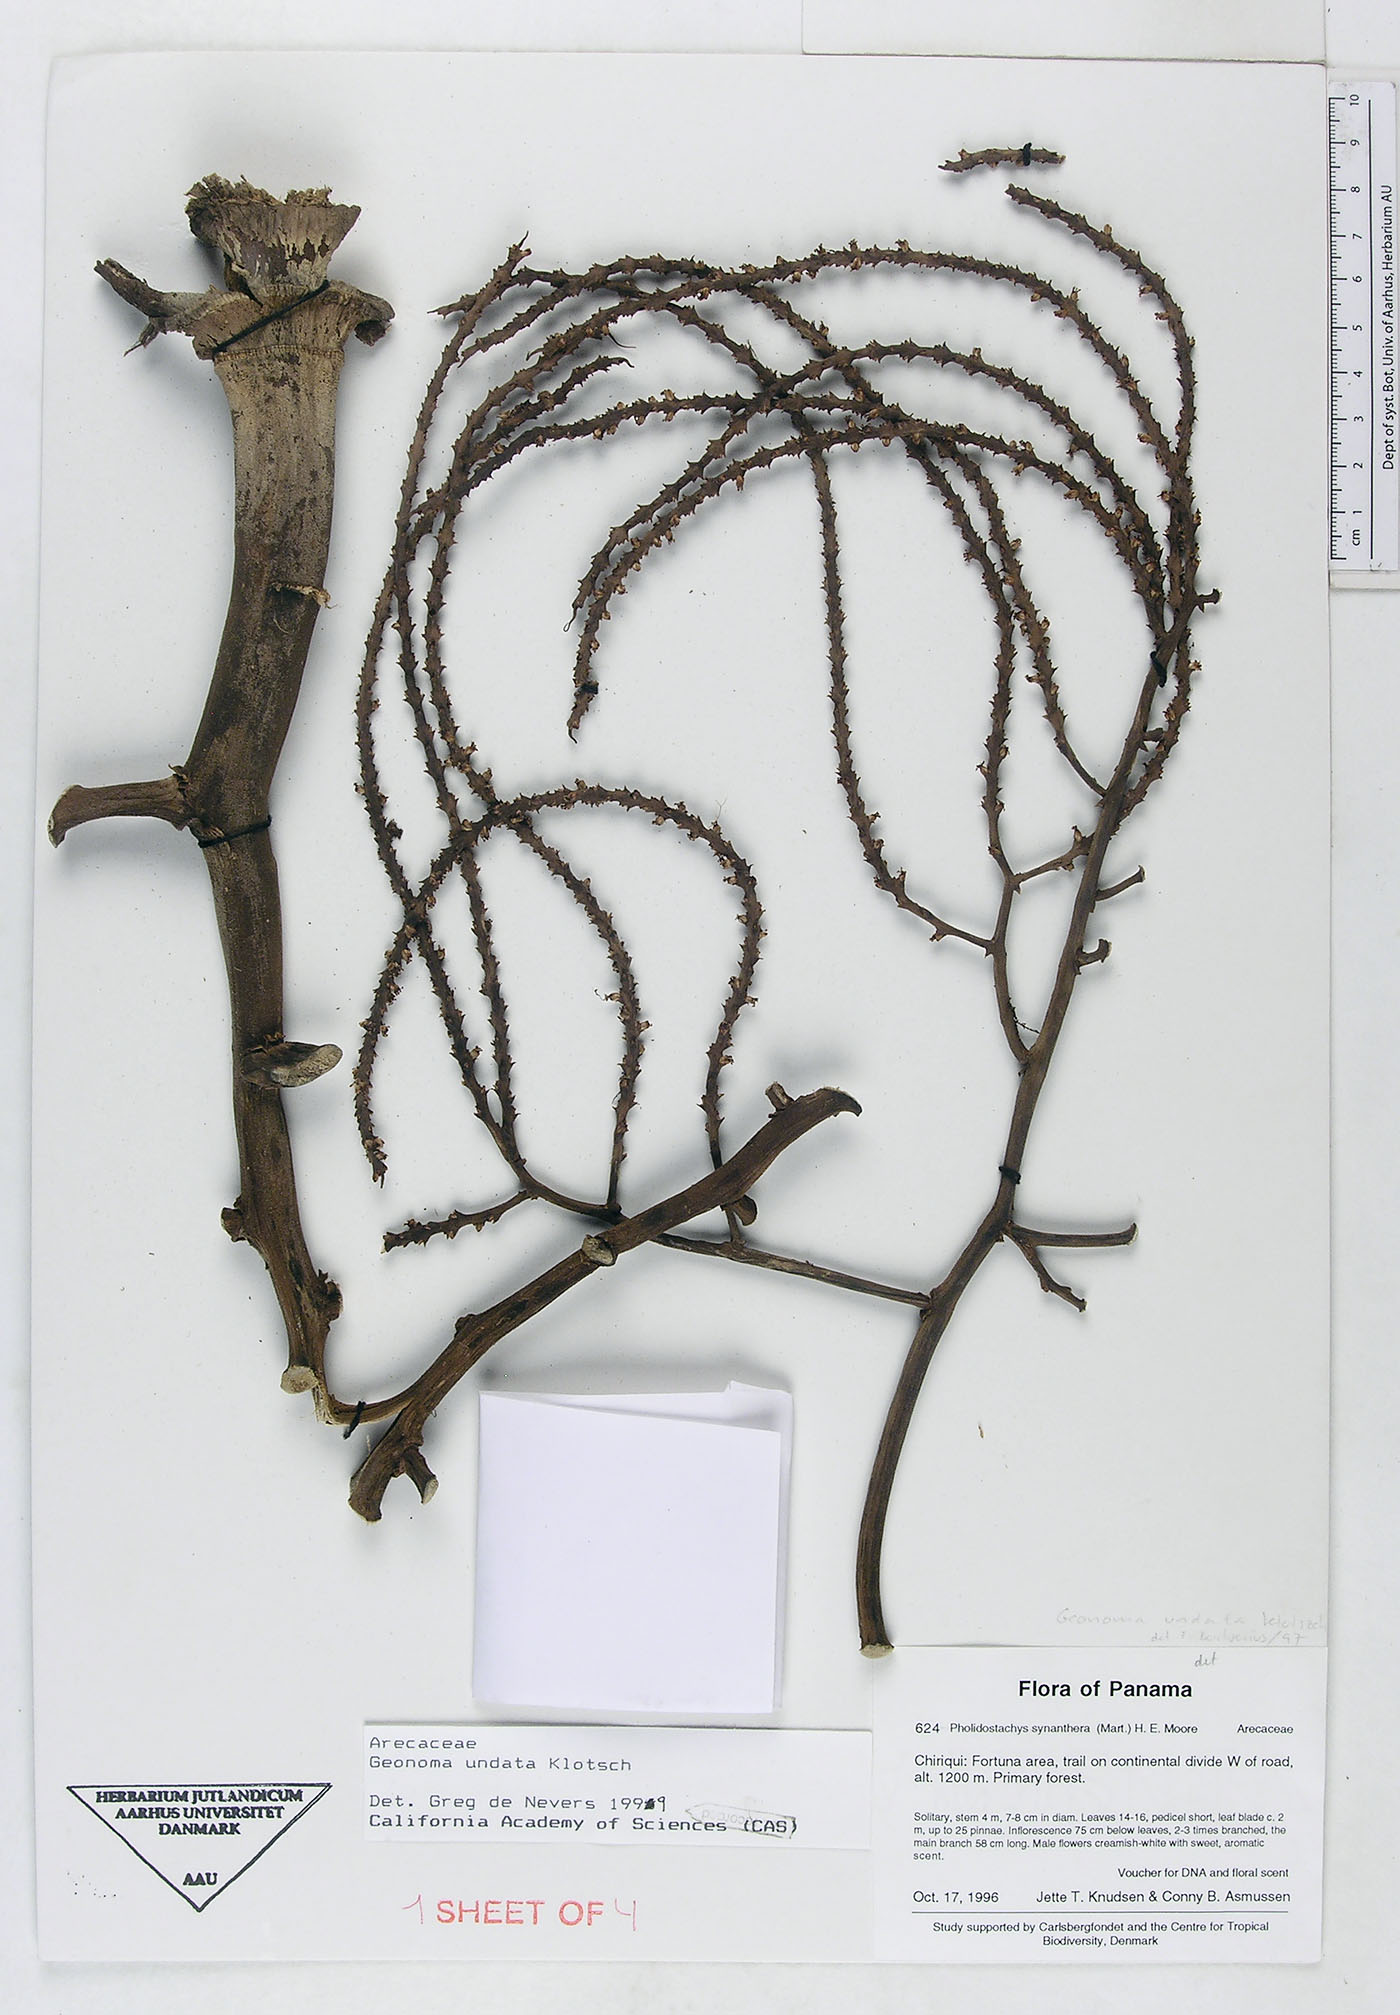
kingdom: Plantae
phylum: Tracheophyta
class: Liliopsida
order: Arecales
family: Arecaceae
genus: Geonoma
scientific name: Geonoma undata
